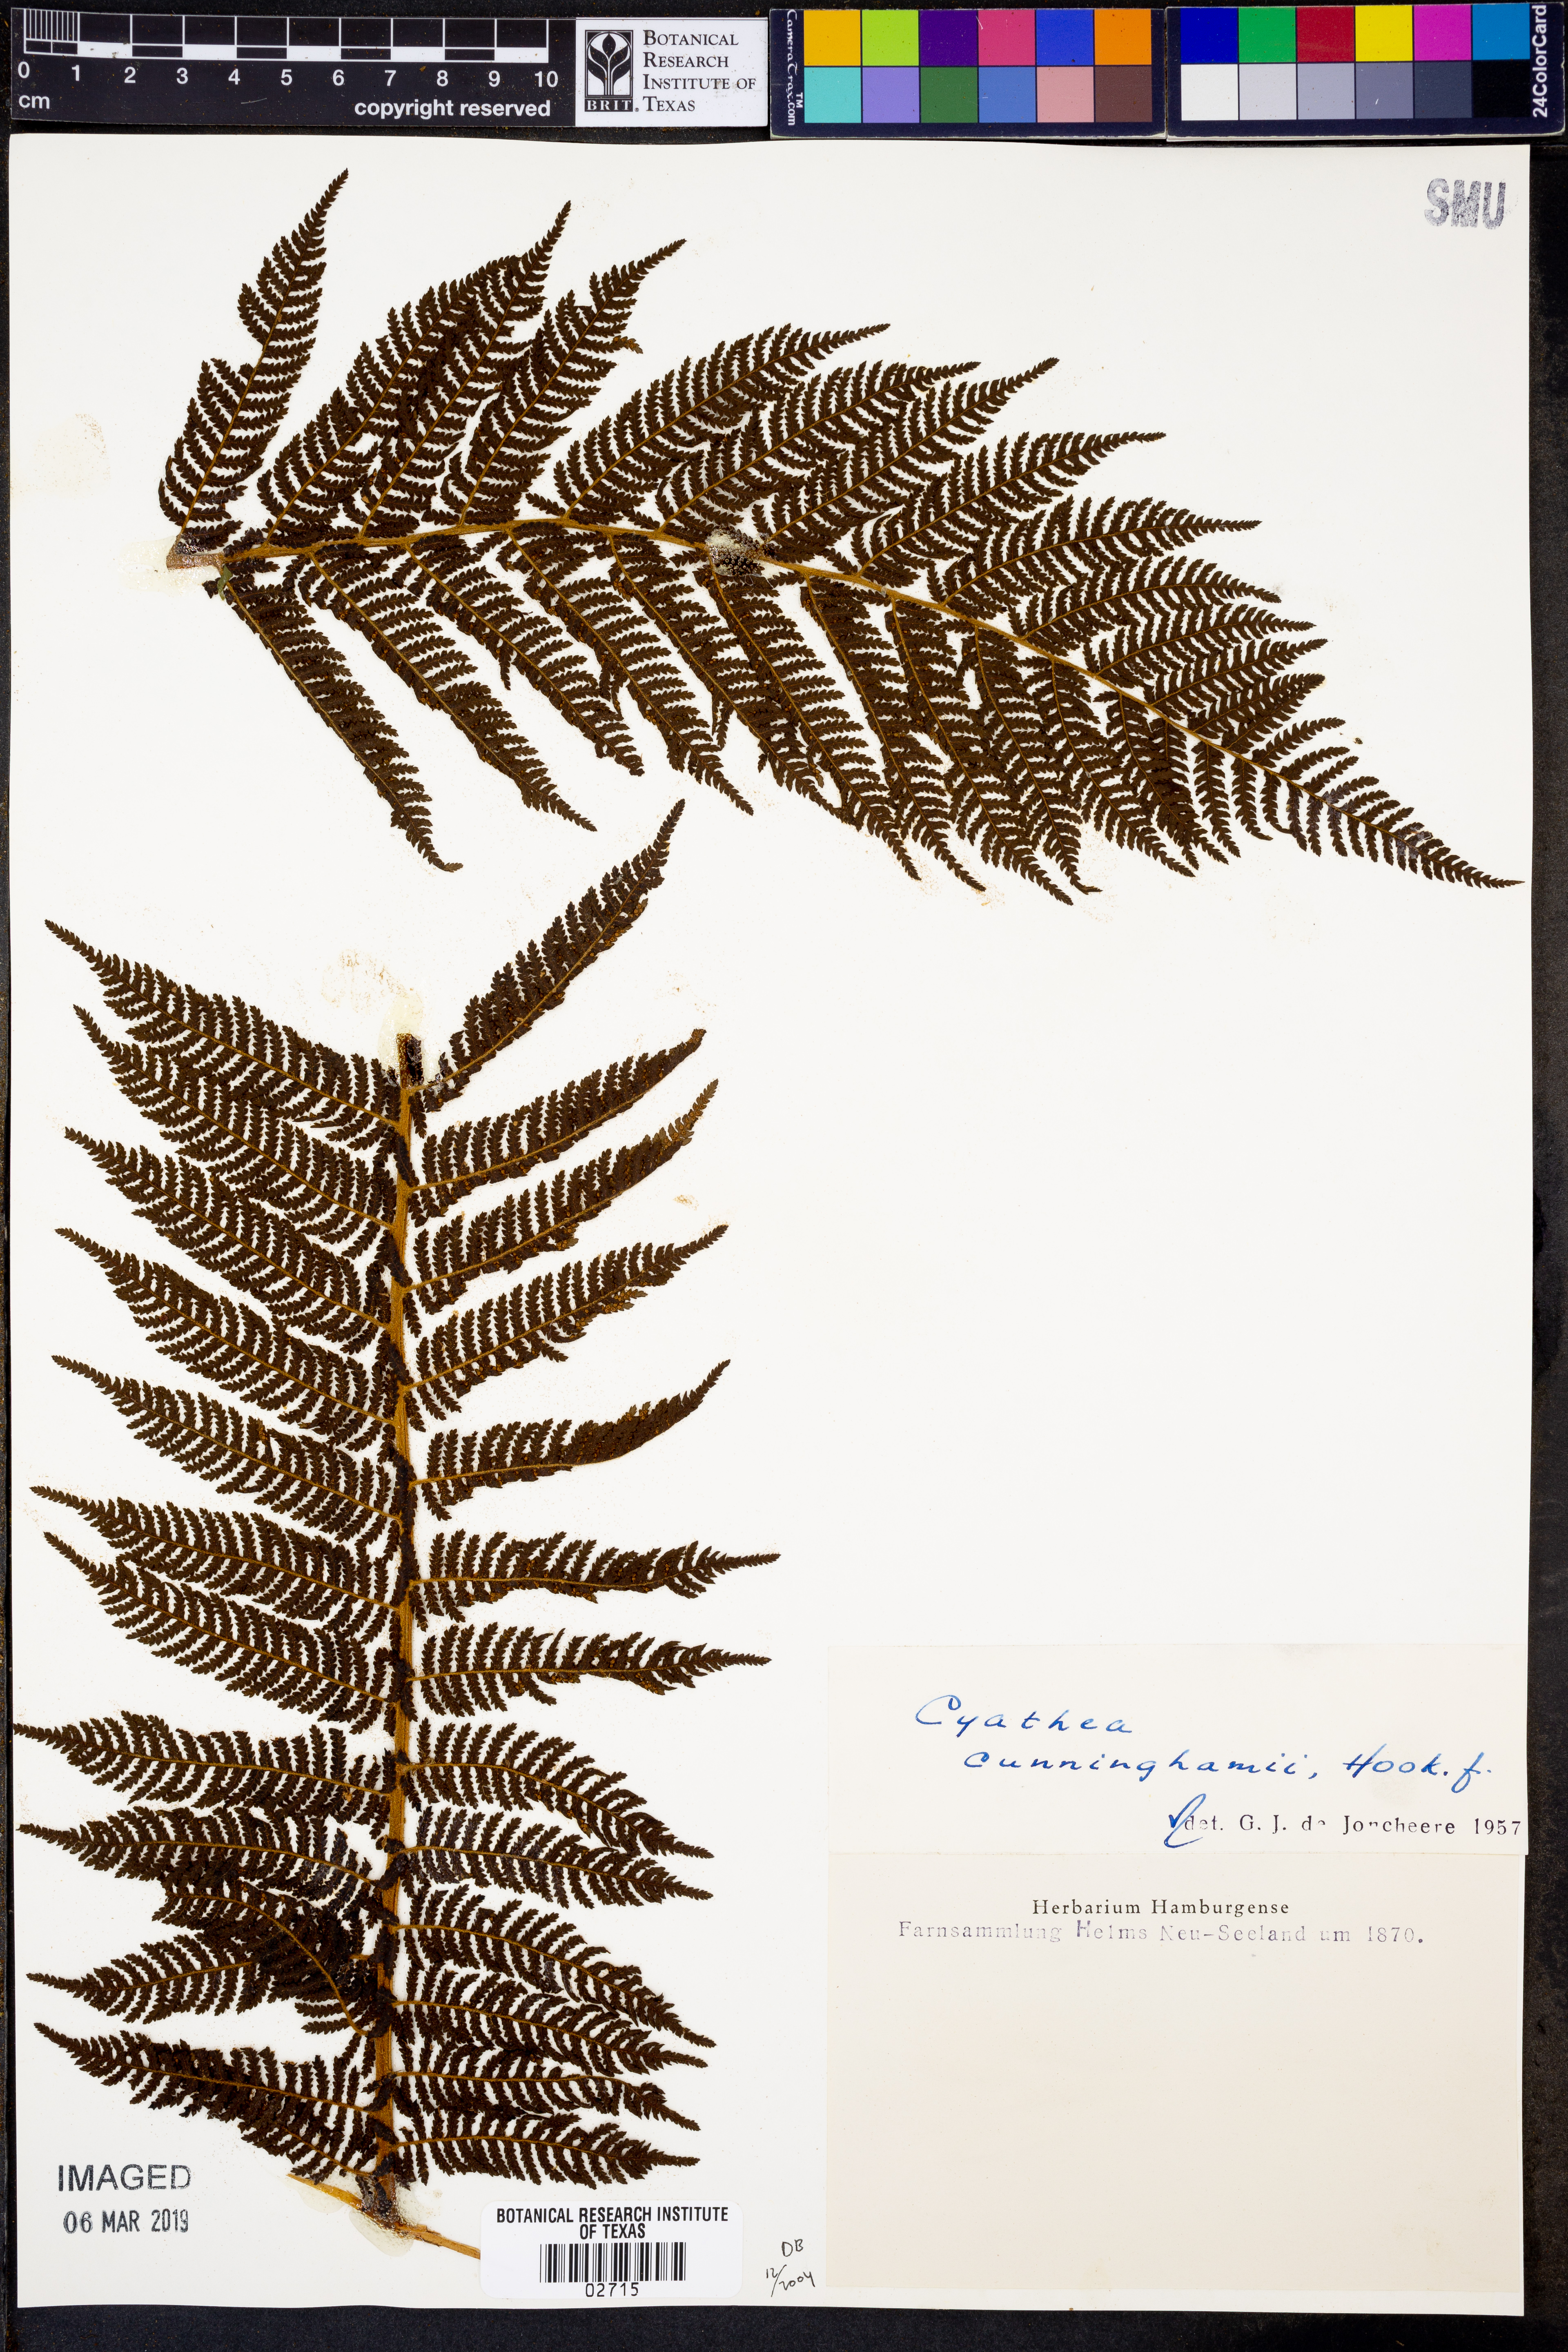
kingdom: Plantae
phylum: Tracheophyta
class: Polypodiopsida
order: Cyatheales
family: Cyatheaceae
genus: Alsophila
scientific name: Alsophila cunninghamii
